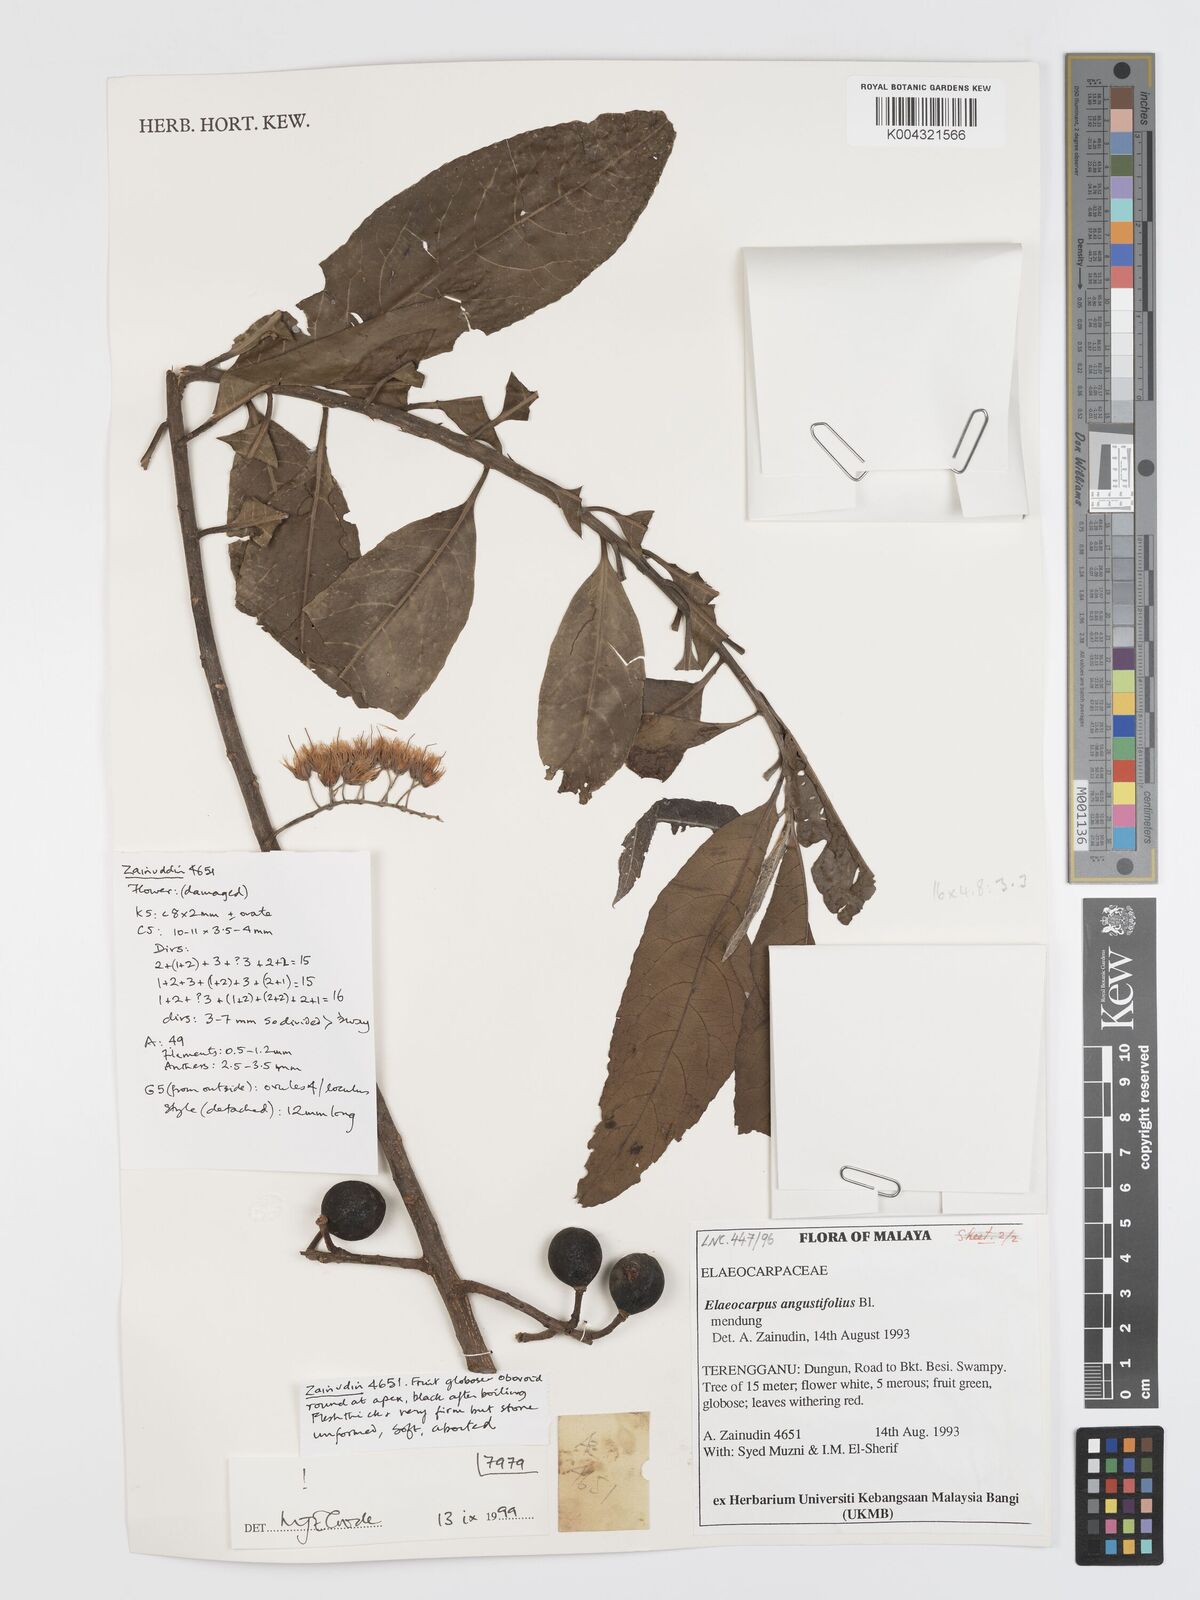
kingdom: Plantae
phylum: Tracheophyta
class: Magnoliopsida
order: Oxalidales
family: Elaeocarpaceae
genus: Elaeocarpus
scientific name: Elaeocarpus
